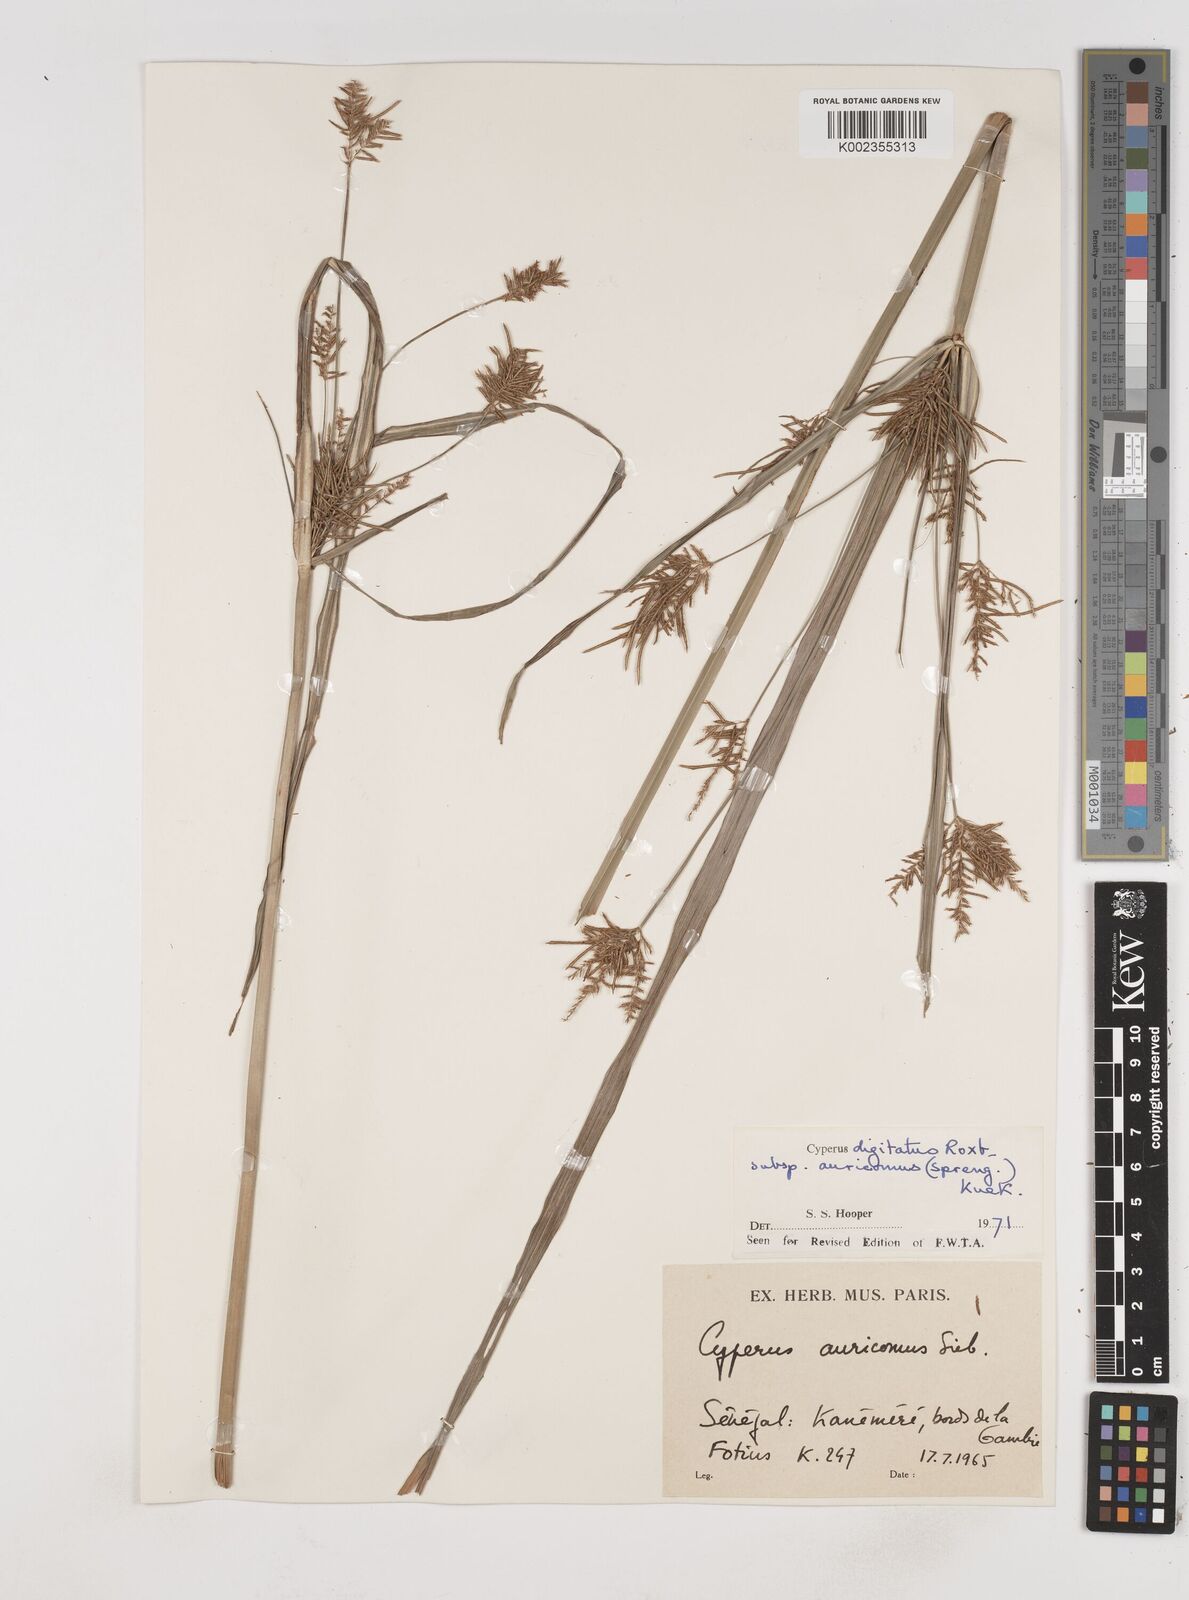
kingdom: Plantae
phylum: Tracheophyta
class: Liliopsida
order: Poales
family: Cyperaceae
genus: Cyperus
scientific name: Cyperus digitatus
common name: Finger flatsedge
